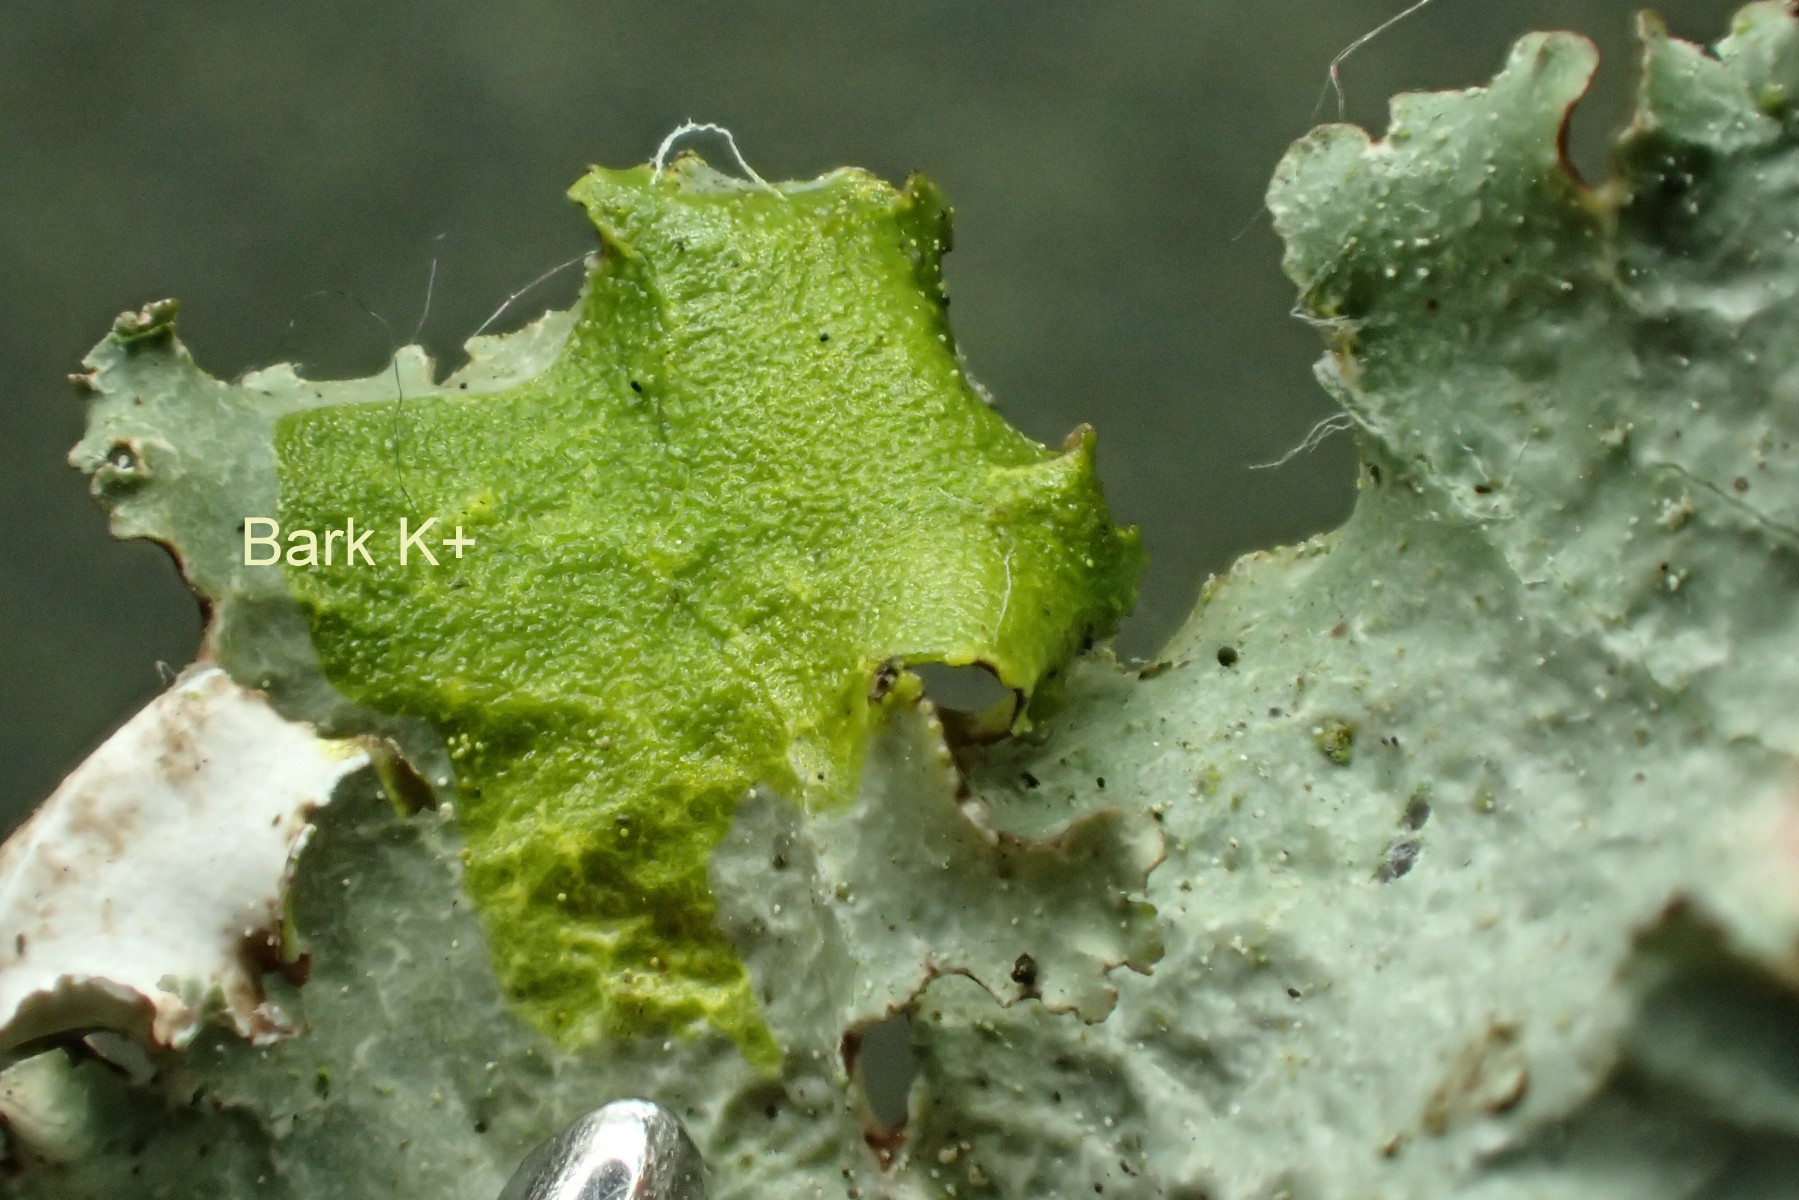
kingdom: Fungi
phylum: Ascomycota
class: Lecanoromycetes
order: Lecanorales
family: Parmeliaceae
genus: Platismatia
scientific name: Platismatia glauca
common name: blågrå papirlav
